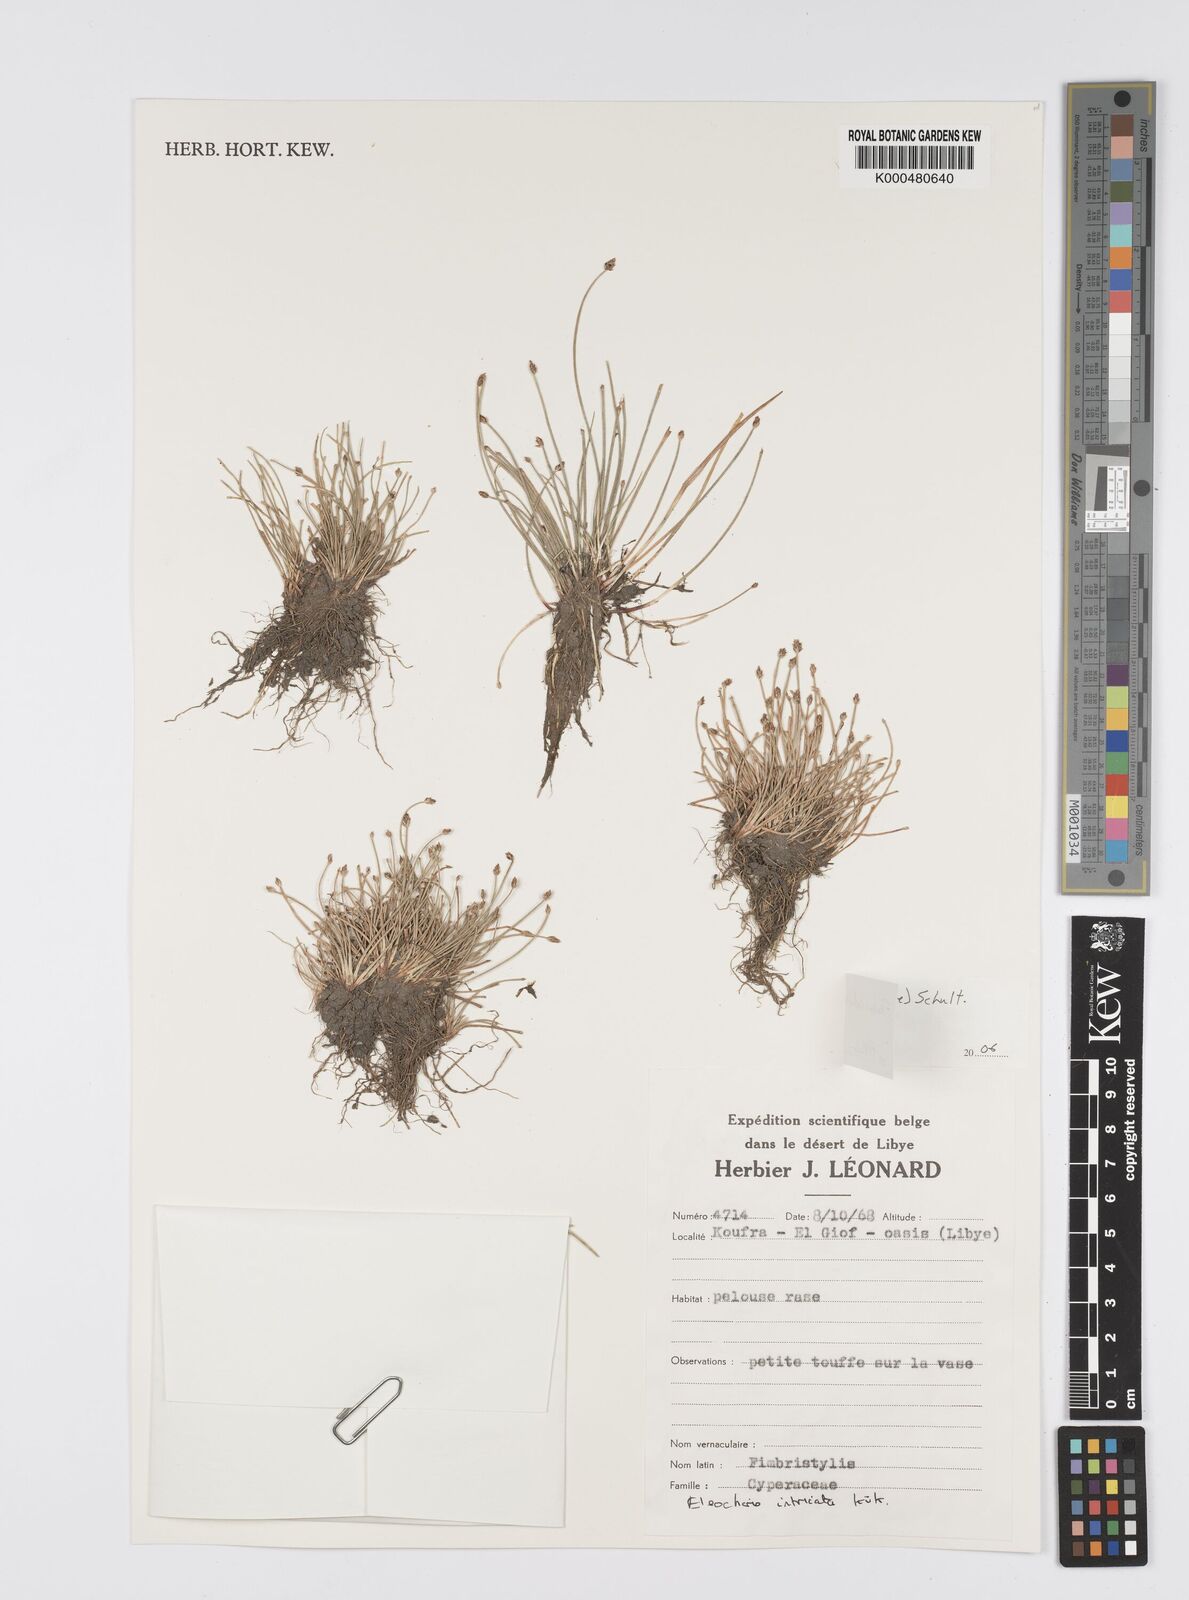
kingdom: Plantae
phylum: Tracheophyta
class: Liliopsida
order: Poales
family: Cyperaceae
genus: Eleocharis
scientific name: Eleocharis geniculata
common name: Canada spikesedge
